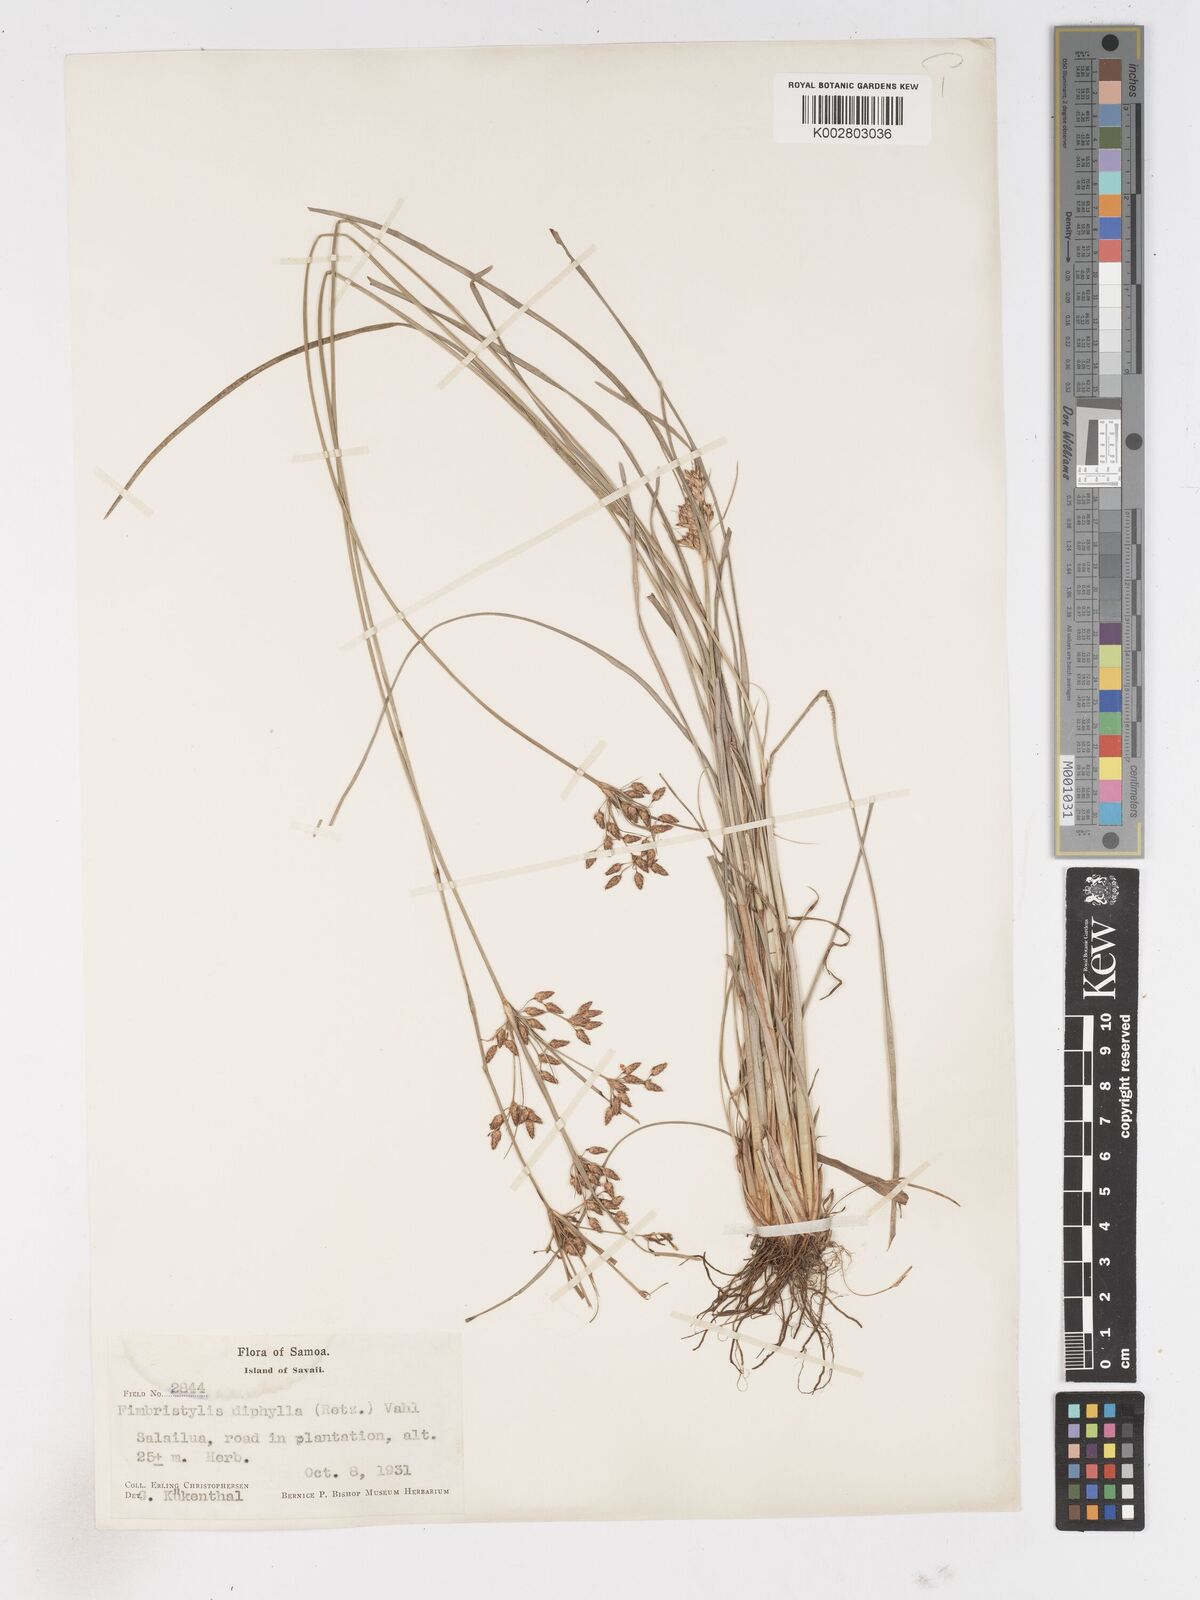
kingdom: Plantae
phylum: Tracheophyta
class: Liliopsida
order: Poales
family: Cyperaceae
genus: Fimbristylis
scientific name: Fimbristylis dichotoma
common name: Forked fimbry
